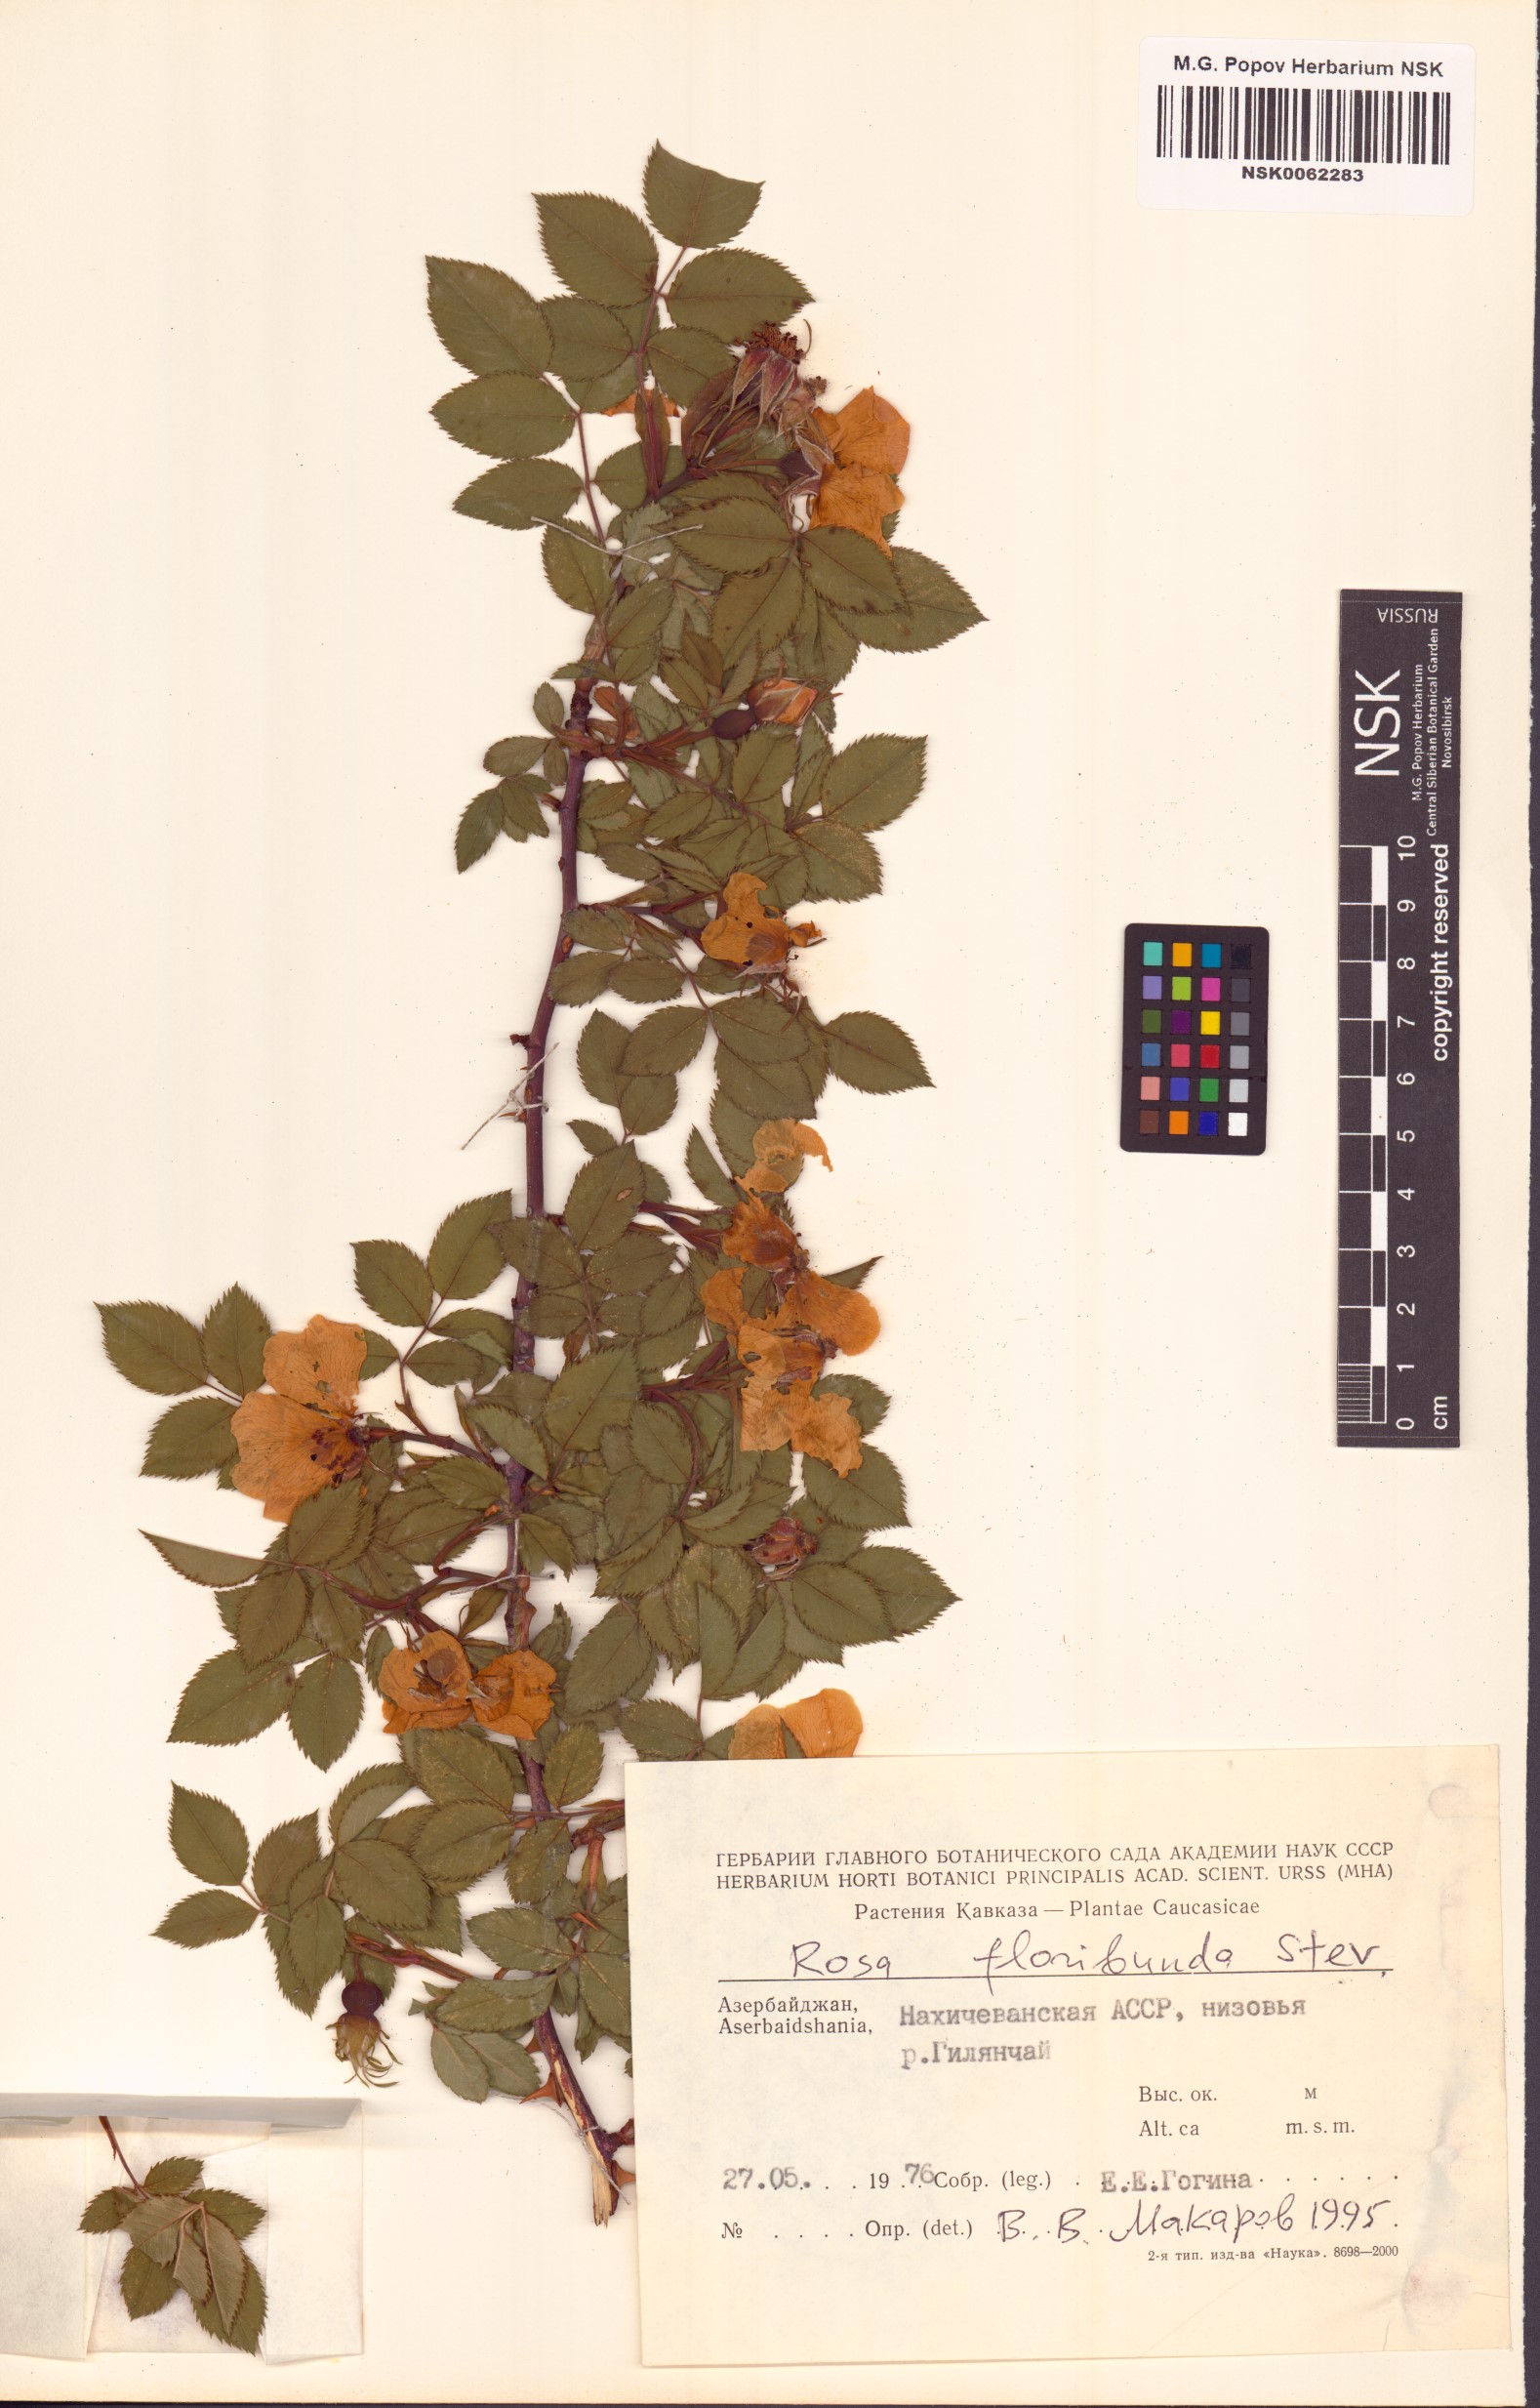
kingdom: Plantae
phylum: Tracheophyta
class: Magnoliopsida
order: Rosales
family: Rosaceae
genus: Rosa
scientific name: Rosa
